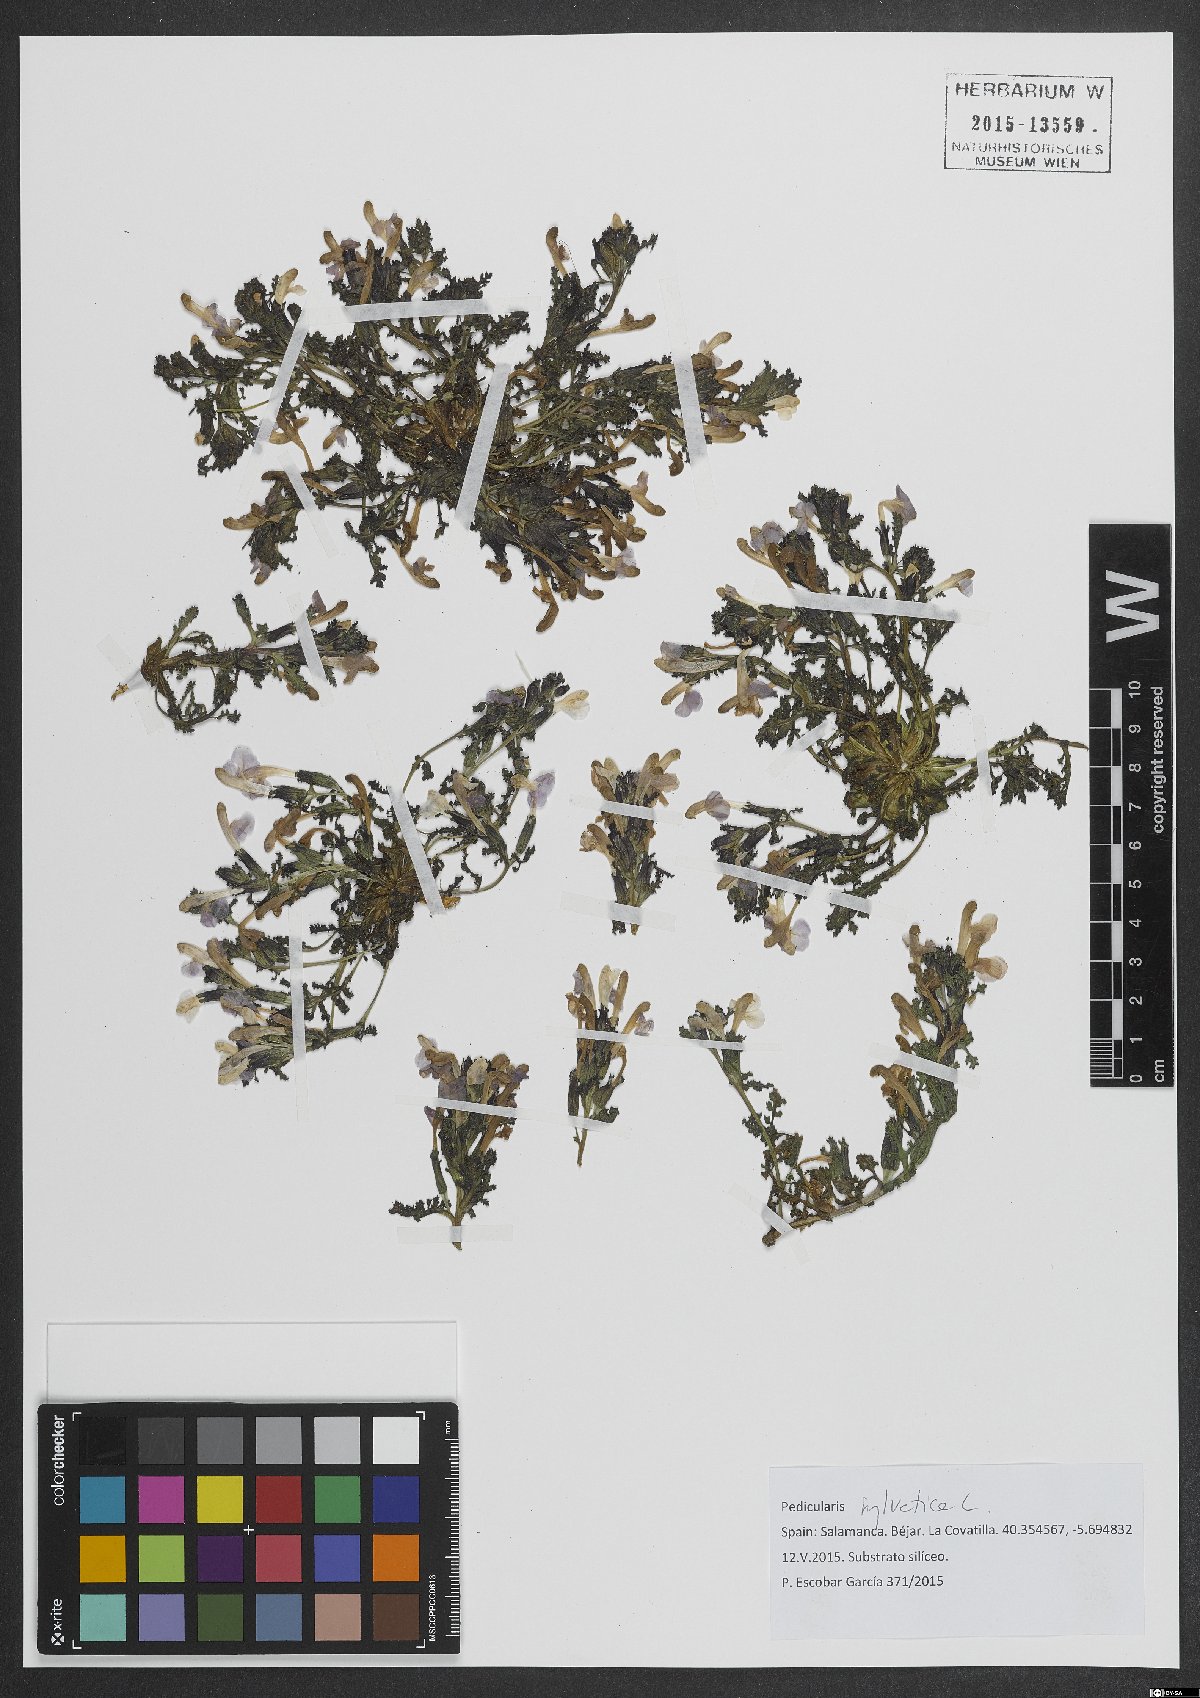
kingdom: Plantae
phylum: Tracheophyta
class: Magnoliopsida
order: Lamiales
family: Orobanchaceae
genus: Pedicularis
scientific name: Pedicularis sylvatica
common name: Lousewort
